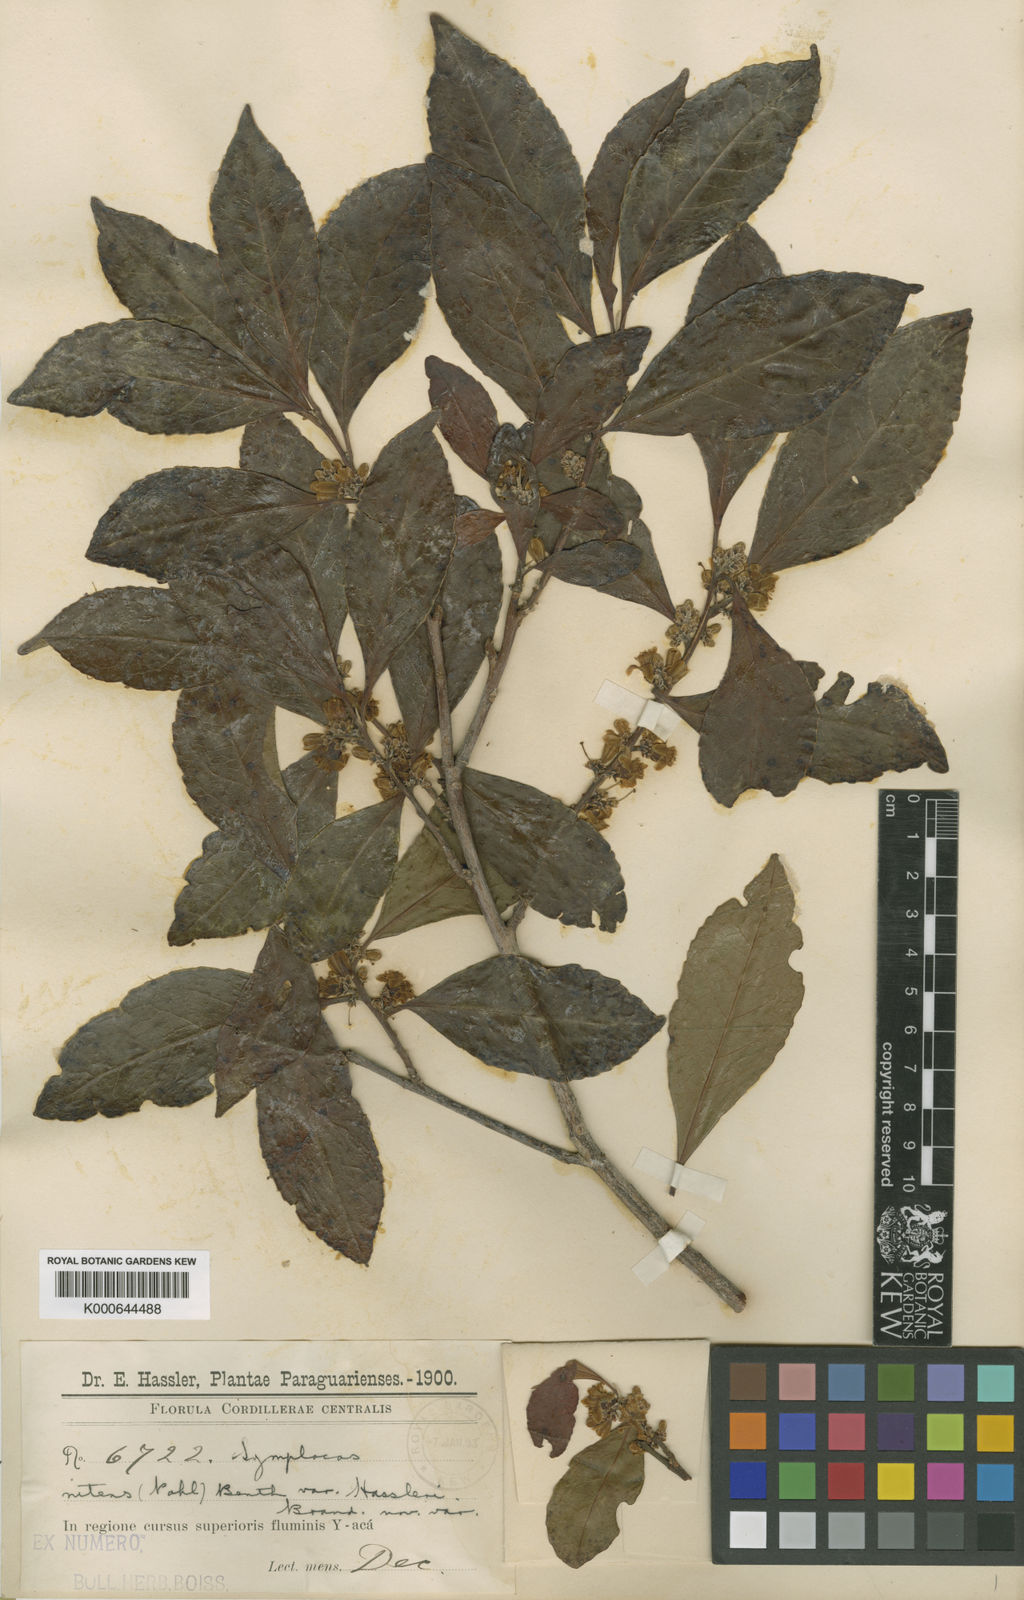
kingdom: Plantae
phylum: Tracheophyta
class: Magnoliopsida
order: Ericales
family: Symplocaceae
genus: Symplocos
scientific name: Symplocos nitens
